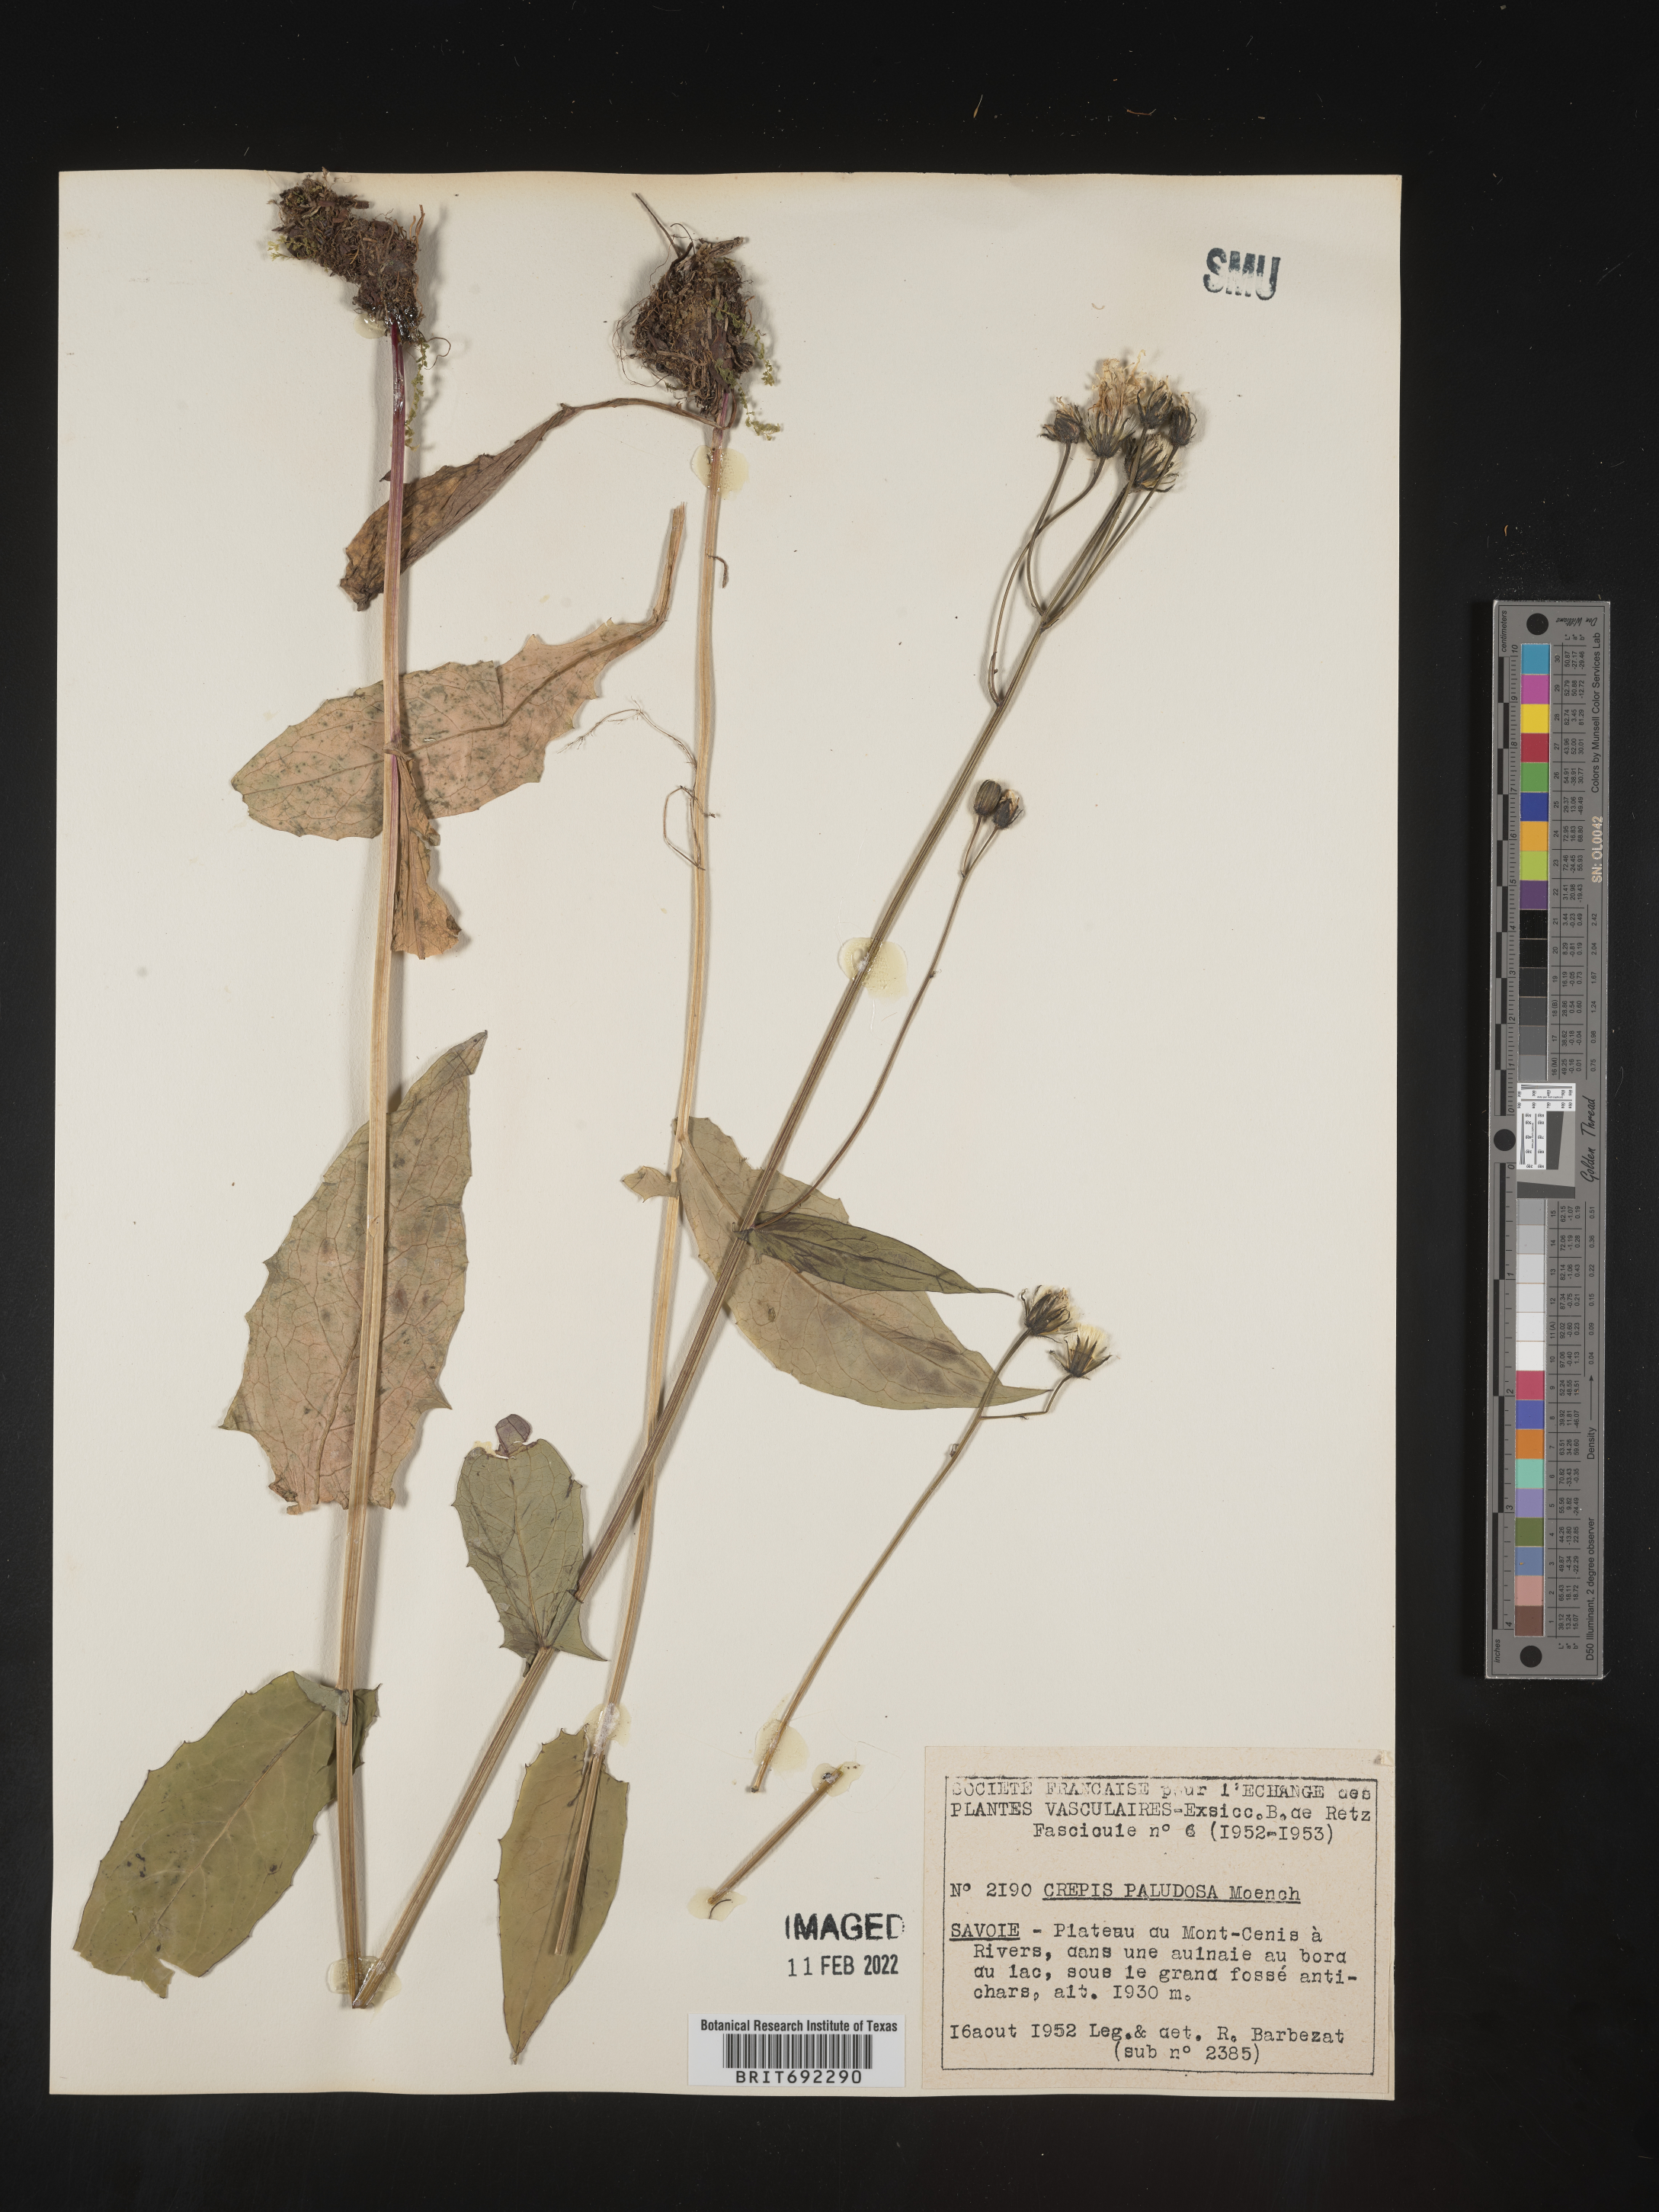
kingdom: Plantae
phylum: Tracheophyta
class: Magnoliopsida
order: Asterales
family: Asteraceae
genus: Crepis
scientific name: Crepis
